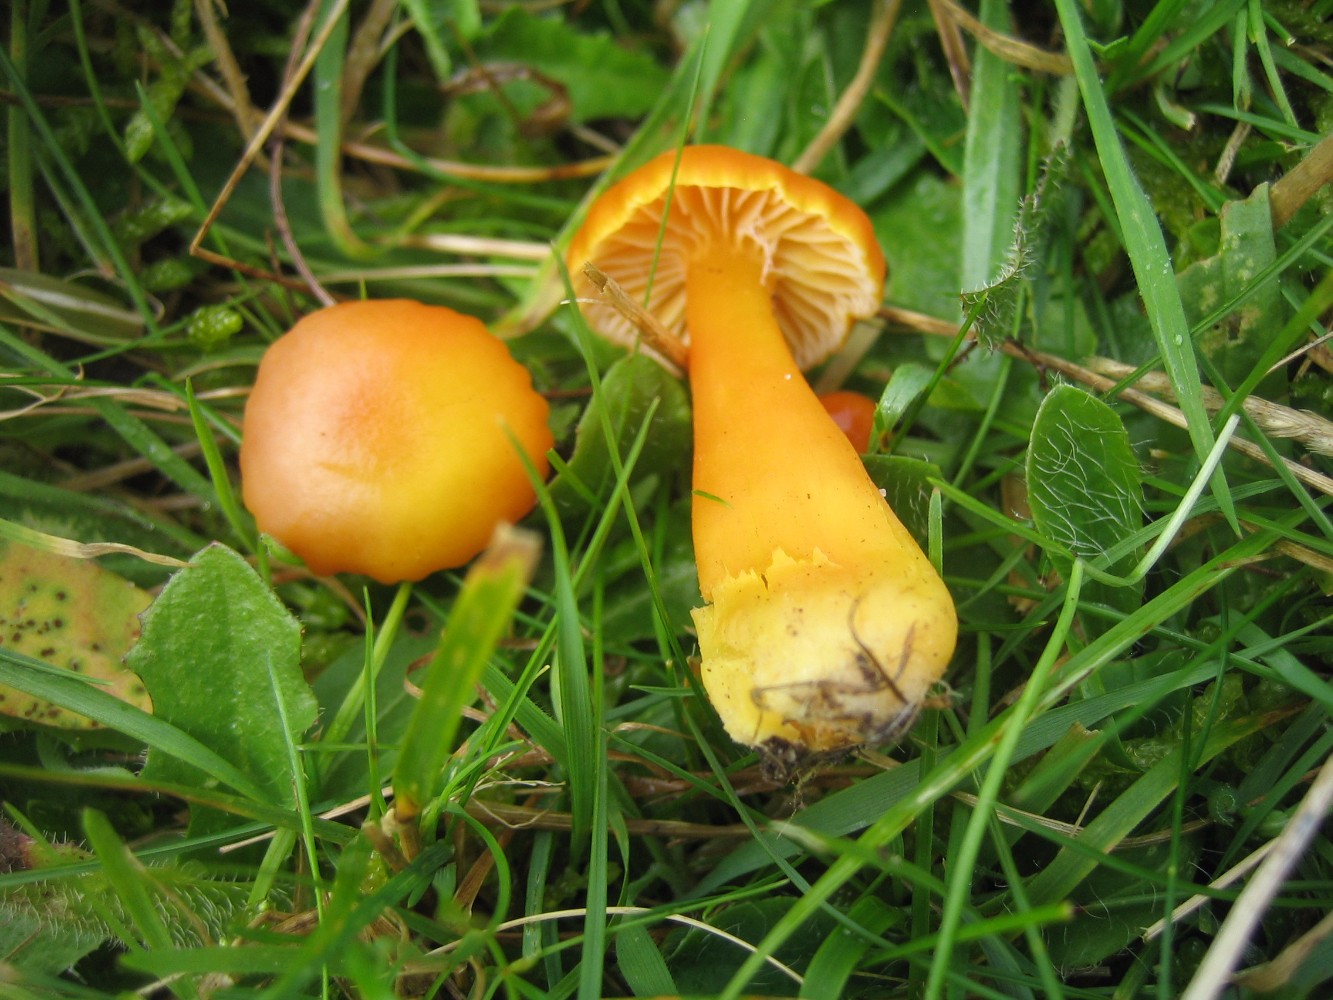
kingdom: Fungi
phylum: Basidiomycota
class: Agaricomycetes
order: Agaricales
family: Hygrophoraceae
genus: Hygrocybe
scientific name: Hygrocybe miniata
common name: mønje-vokshat
